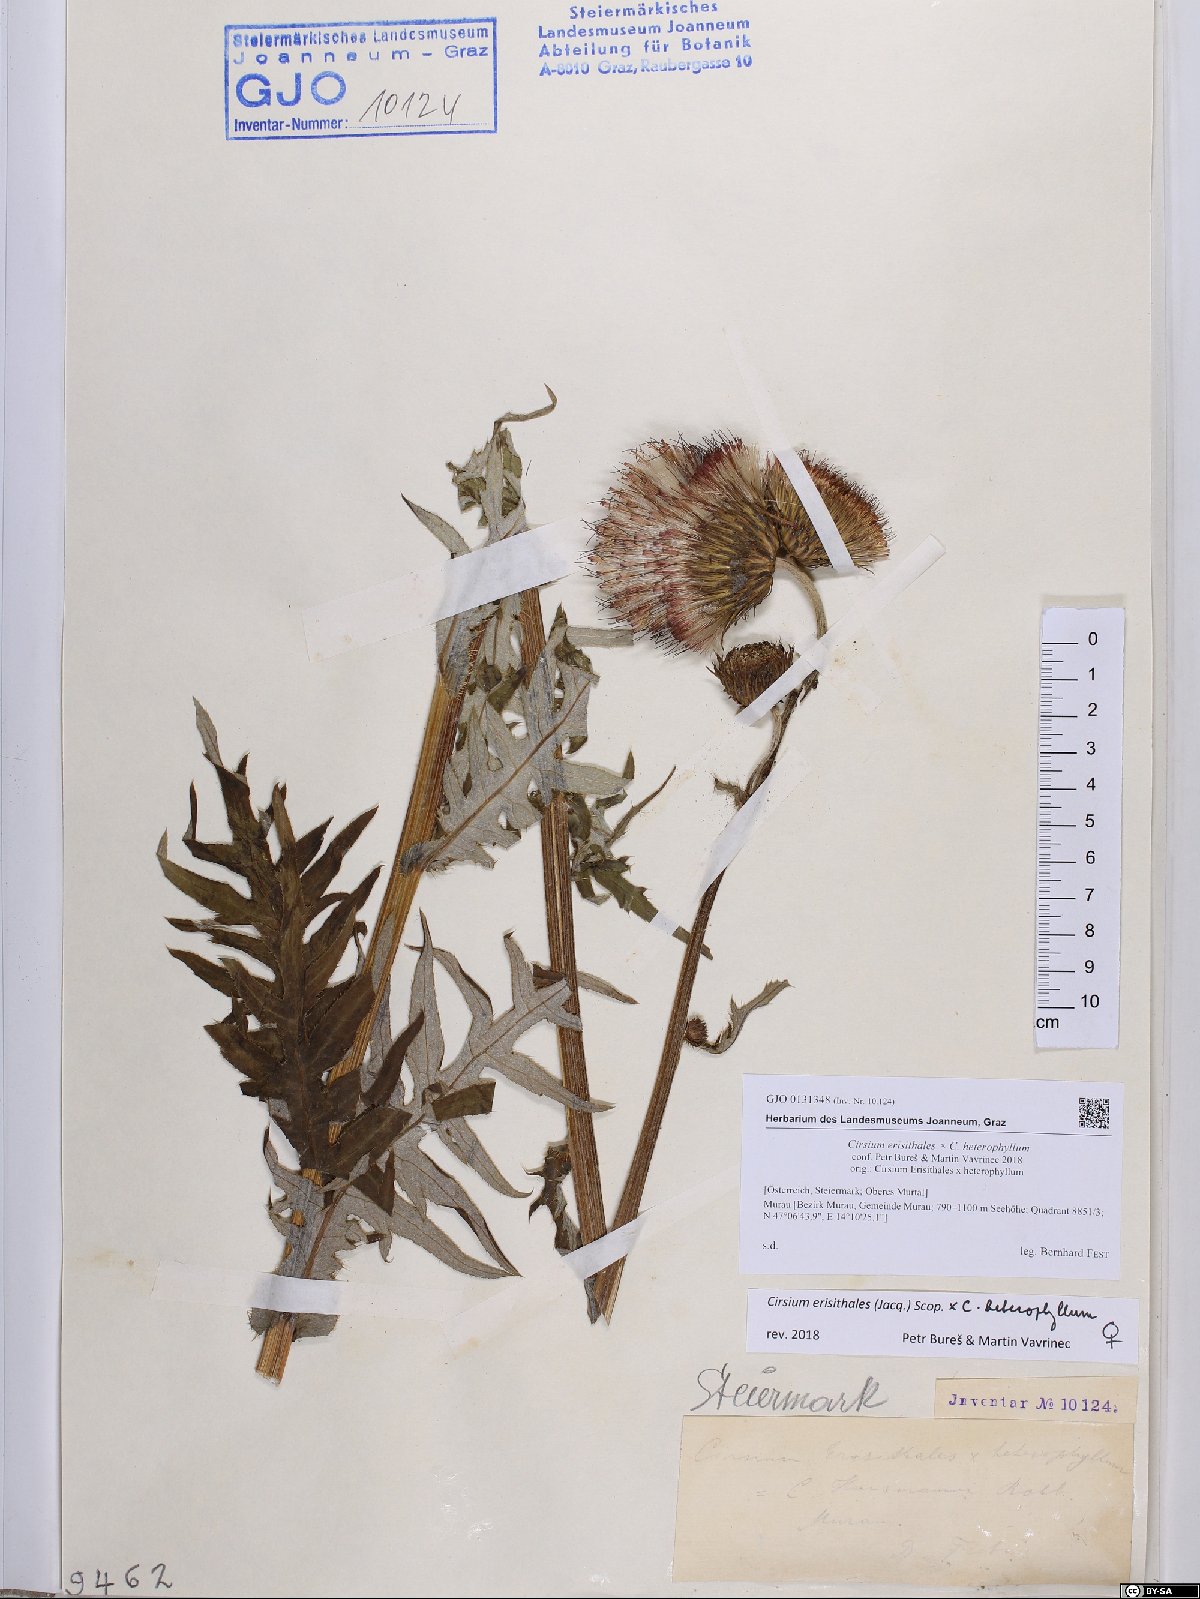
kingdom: Plantae
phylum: Tracheophyta
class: Magnoliopsida
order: Asterales
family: Asteraceae
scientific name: Asteraceae
